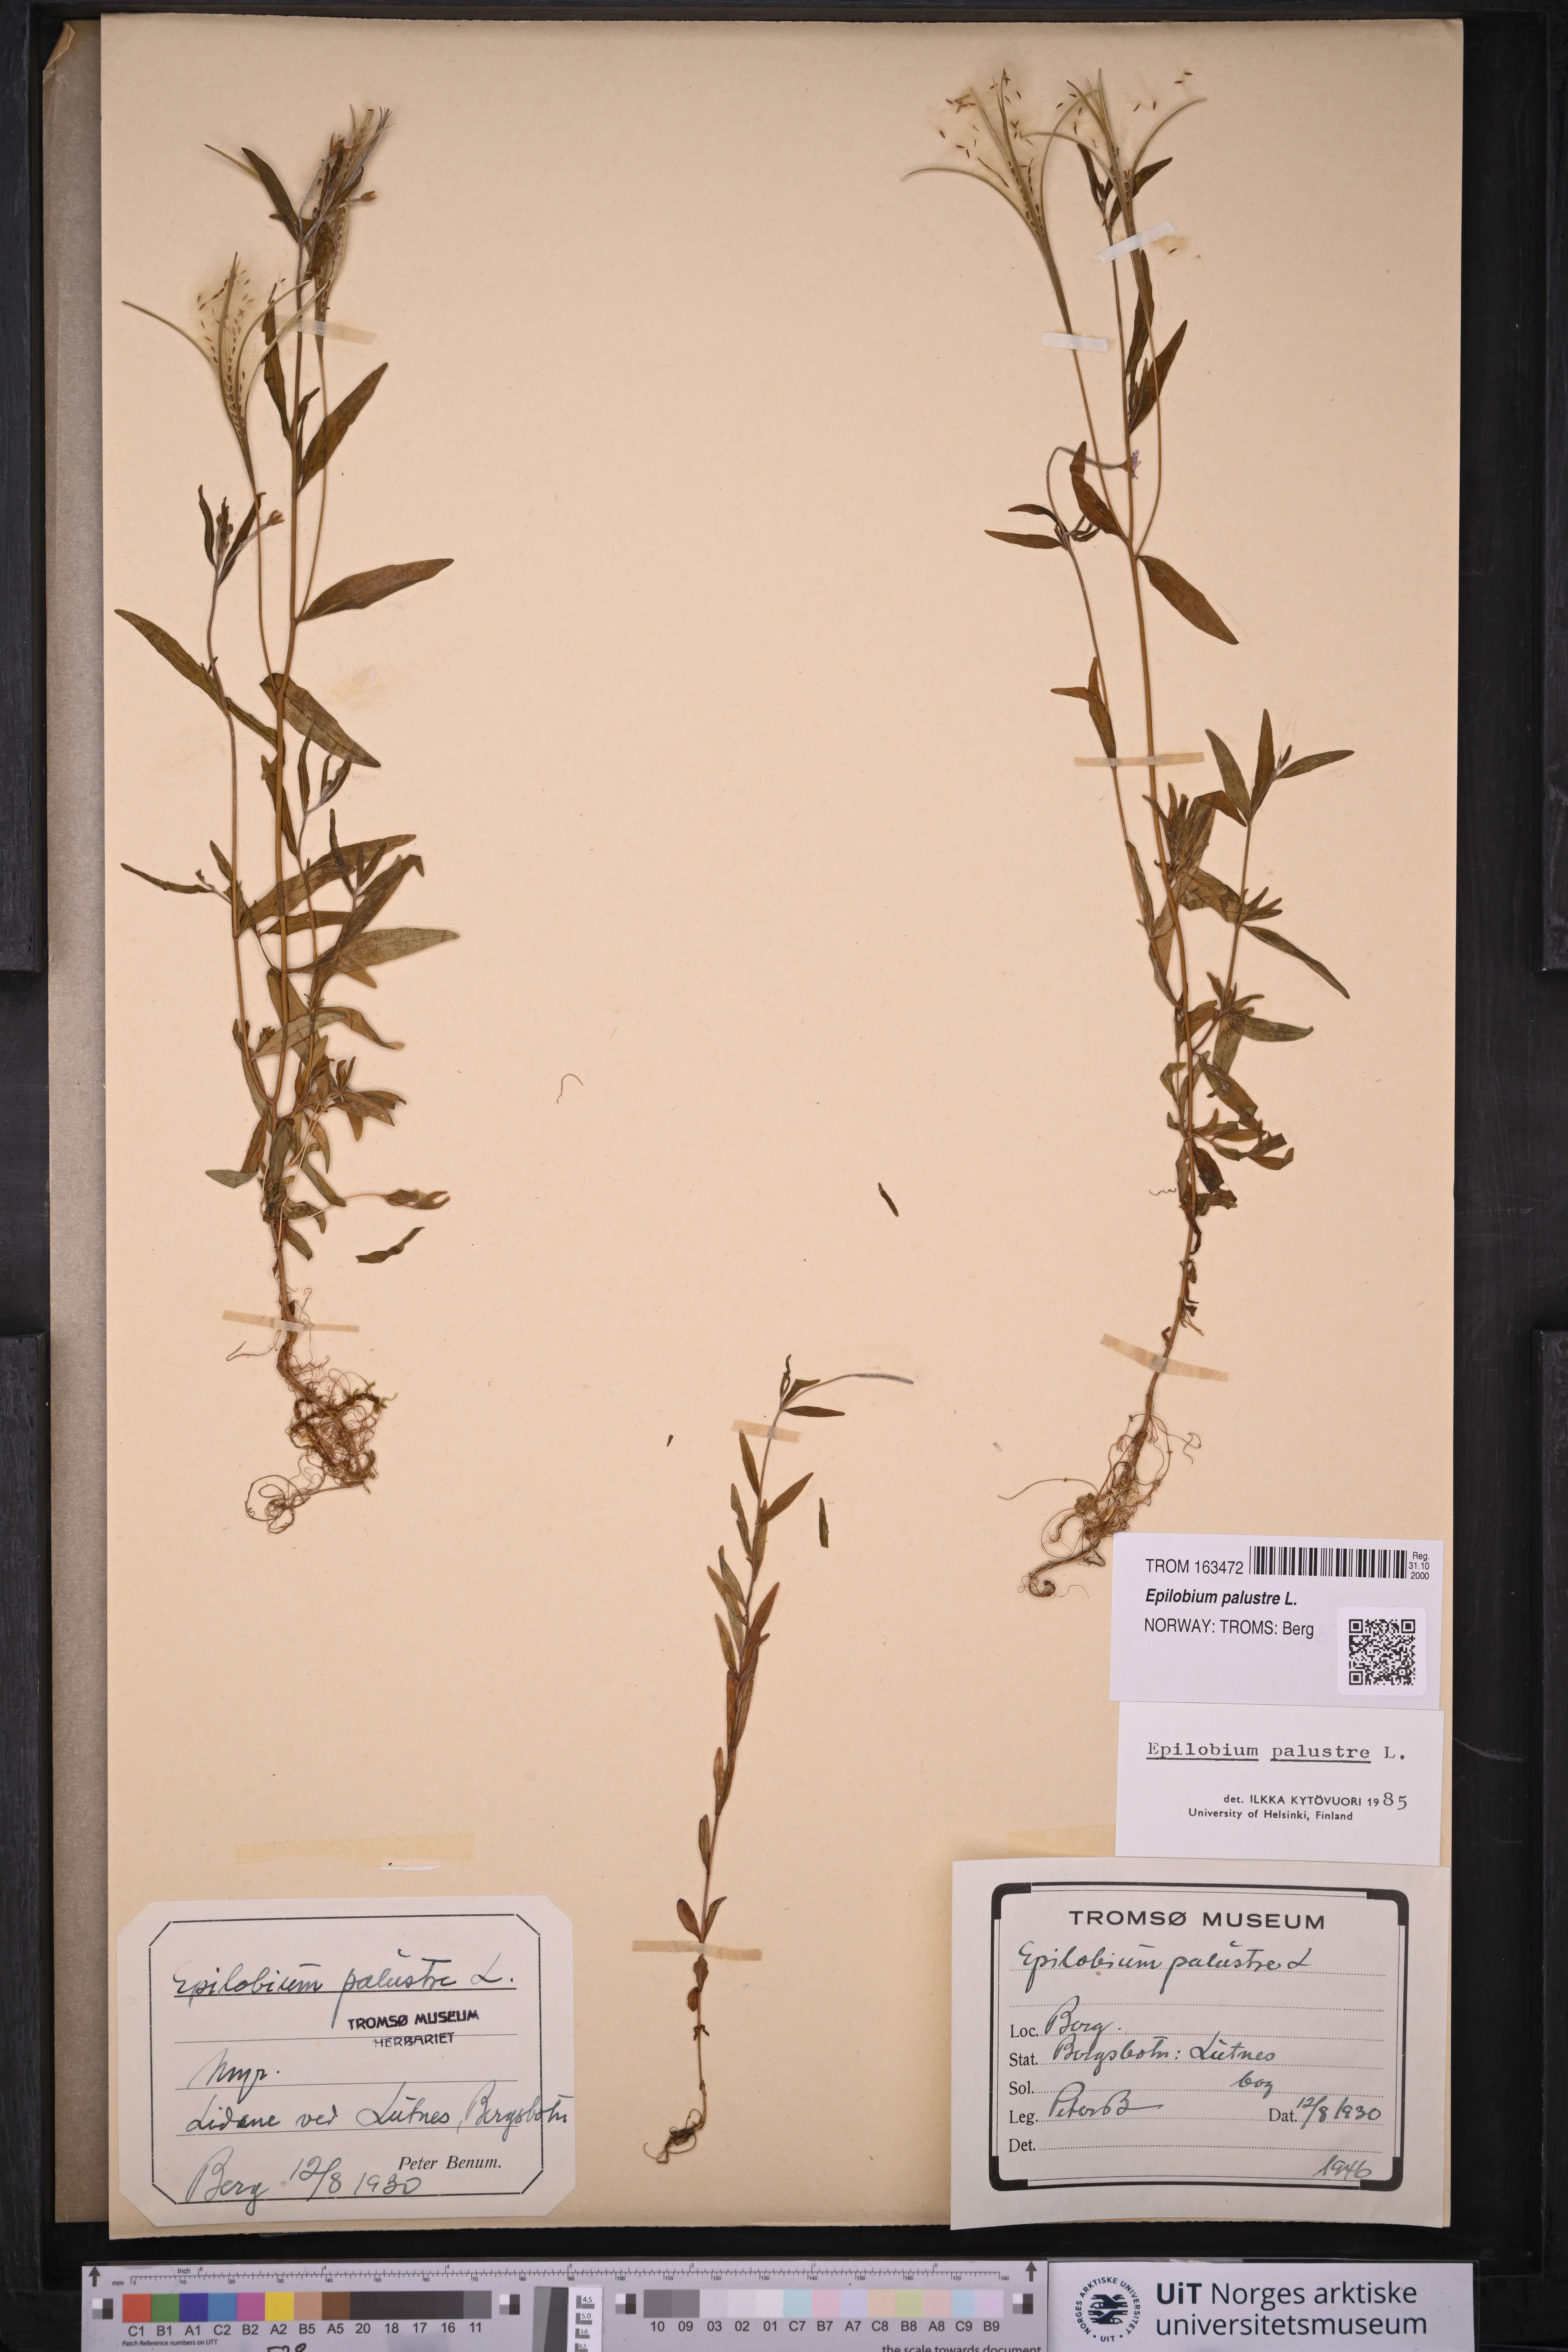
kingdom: Plantae
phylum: Tracheophyta
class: Magnoliopsida
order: Myrtales
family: Onagraceae
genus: Epilobium
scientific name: Epilobium palustre
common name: Marsh willowherb
